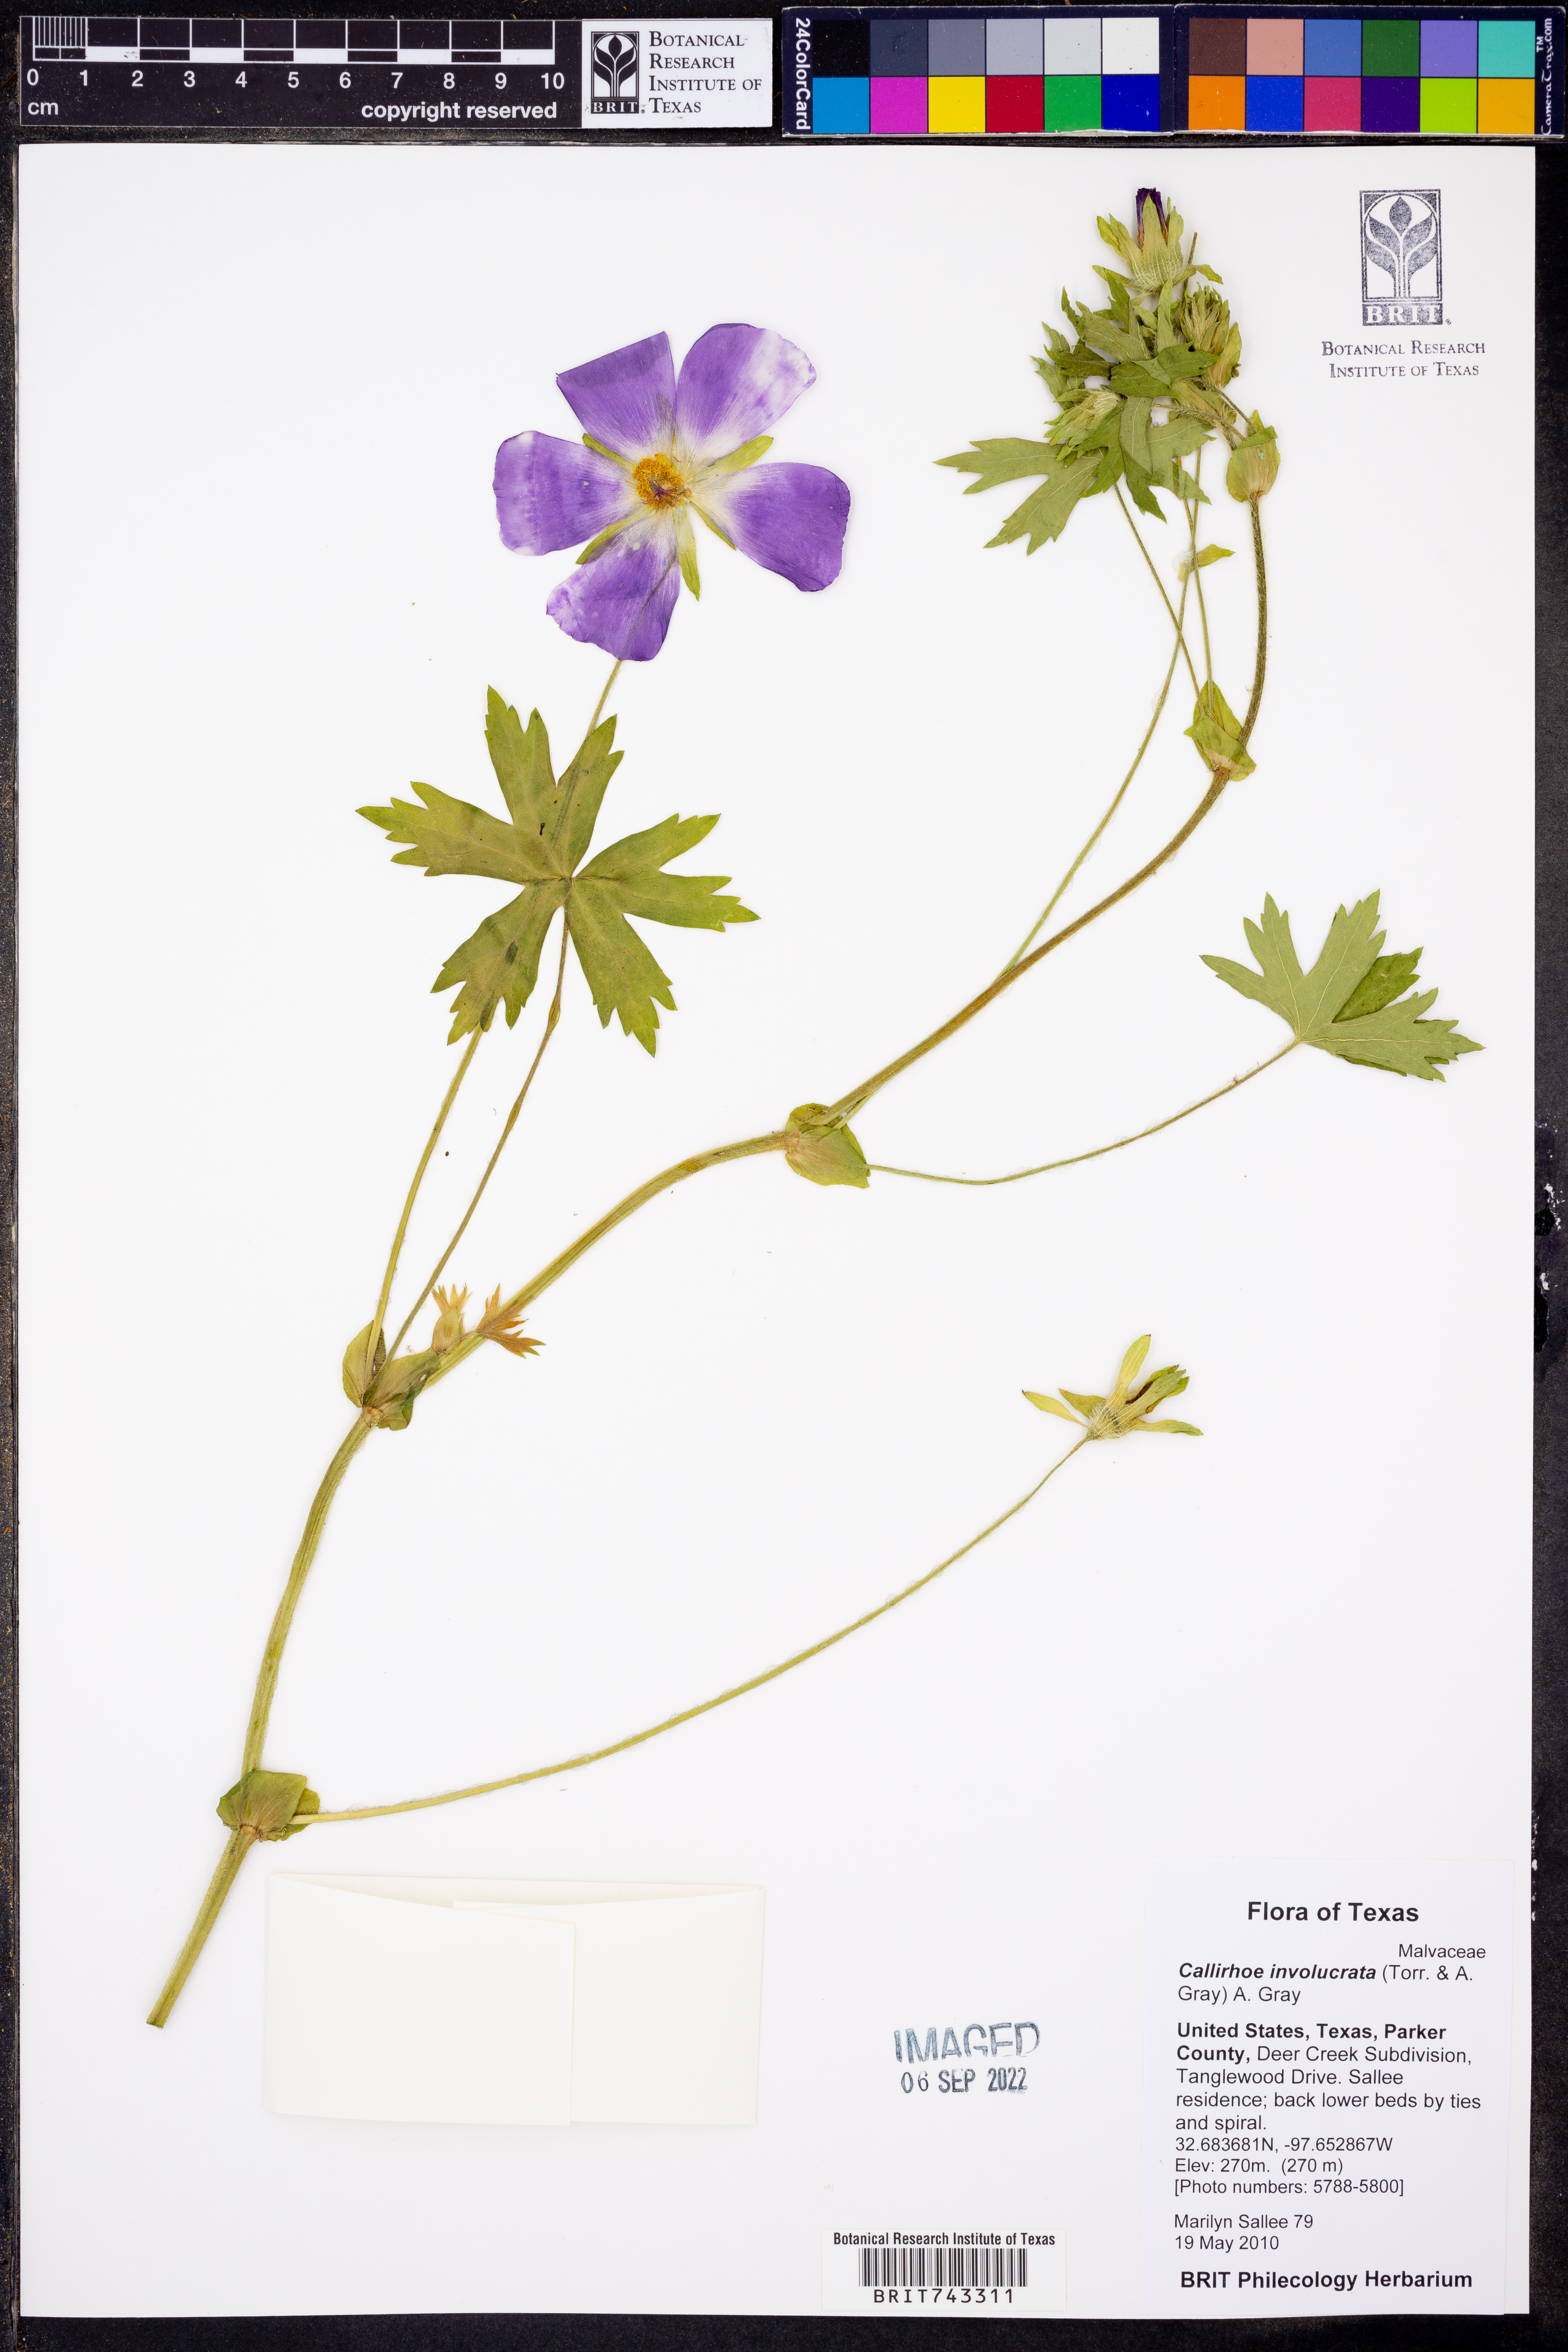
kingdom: Plantae
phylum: Tracheophyta
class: Magnoliopsida
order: Malvales
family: Malvaceae
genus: Callirhoe
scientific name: Callirhoe involucrata
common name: Purple poppy-mallow
